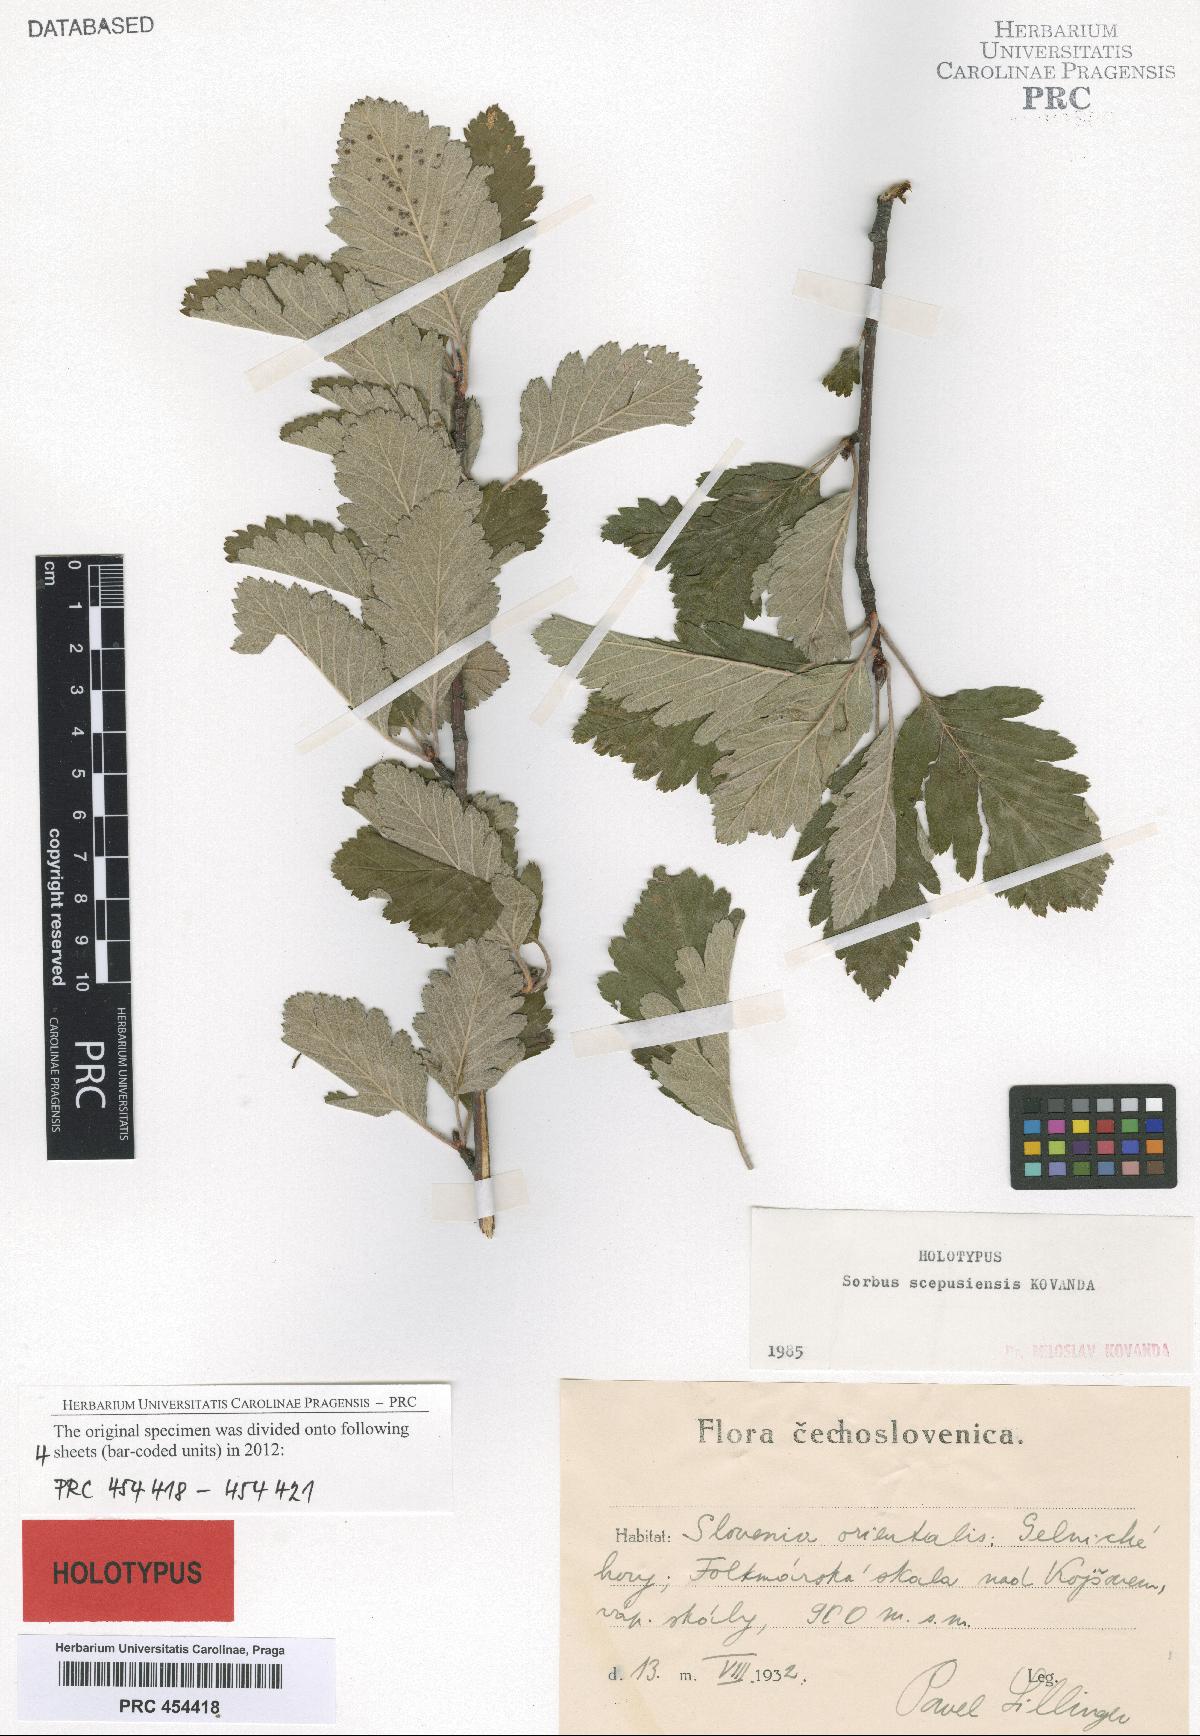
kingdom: Plantae
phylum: Tracheophyta
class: Magnoliopsida
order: Rosales
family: Rosaceae
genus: Hedlundia
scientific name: Hedlundia scepusiensis
